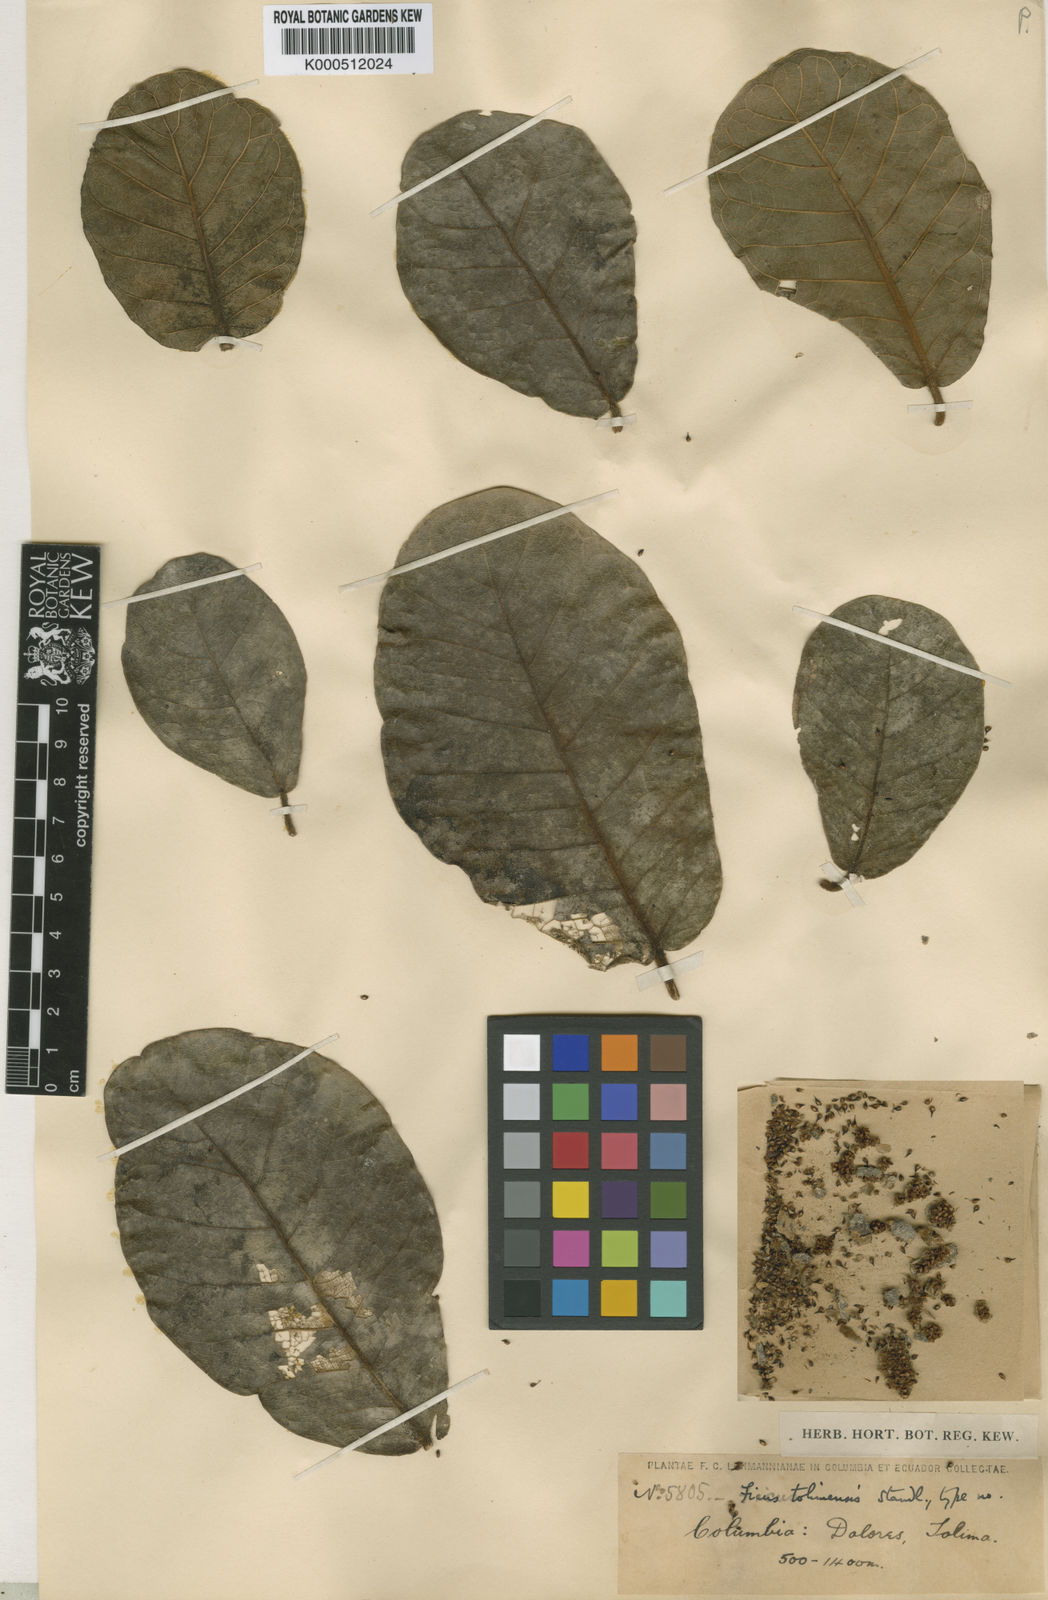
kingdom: Plantae
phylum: Tracheophyta
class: Magnoliopsida
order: Rosales
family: Moraceae
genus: Ficus
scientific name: Ficus popenoei
